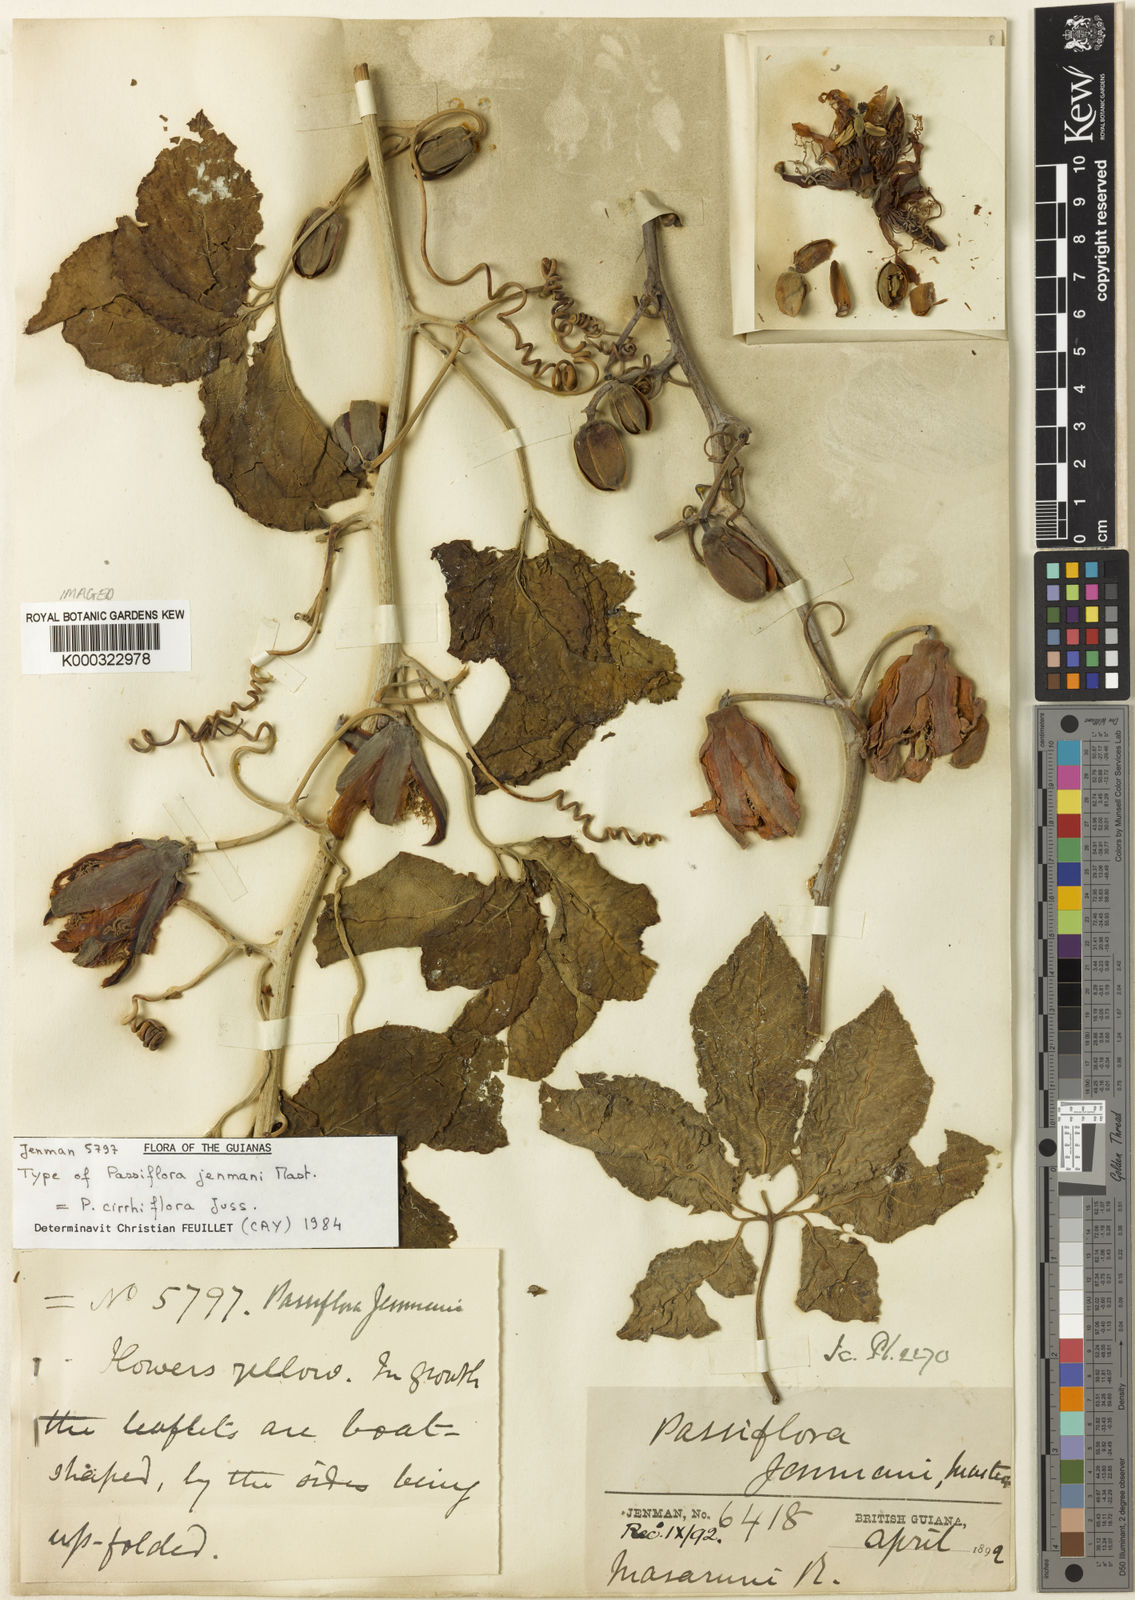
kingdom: Plantae
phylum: Tracheophyta
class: Magnoliopsida
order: Malpighiales
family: Passifloraceae
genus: Passiflora
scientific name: Passiflora cirrhiflora
